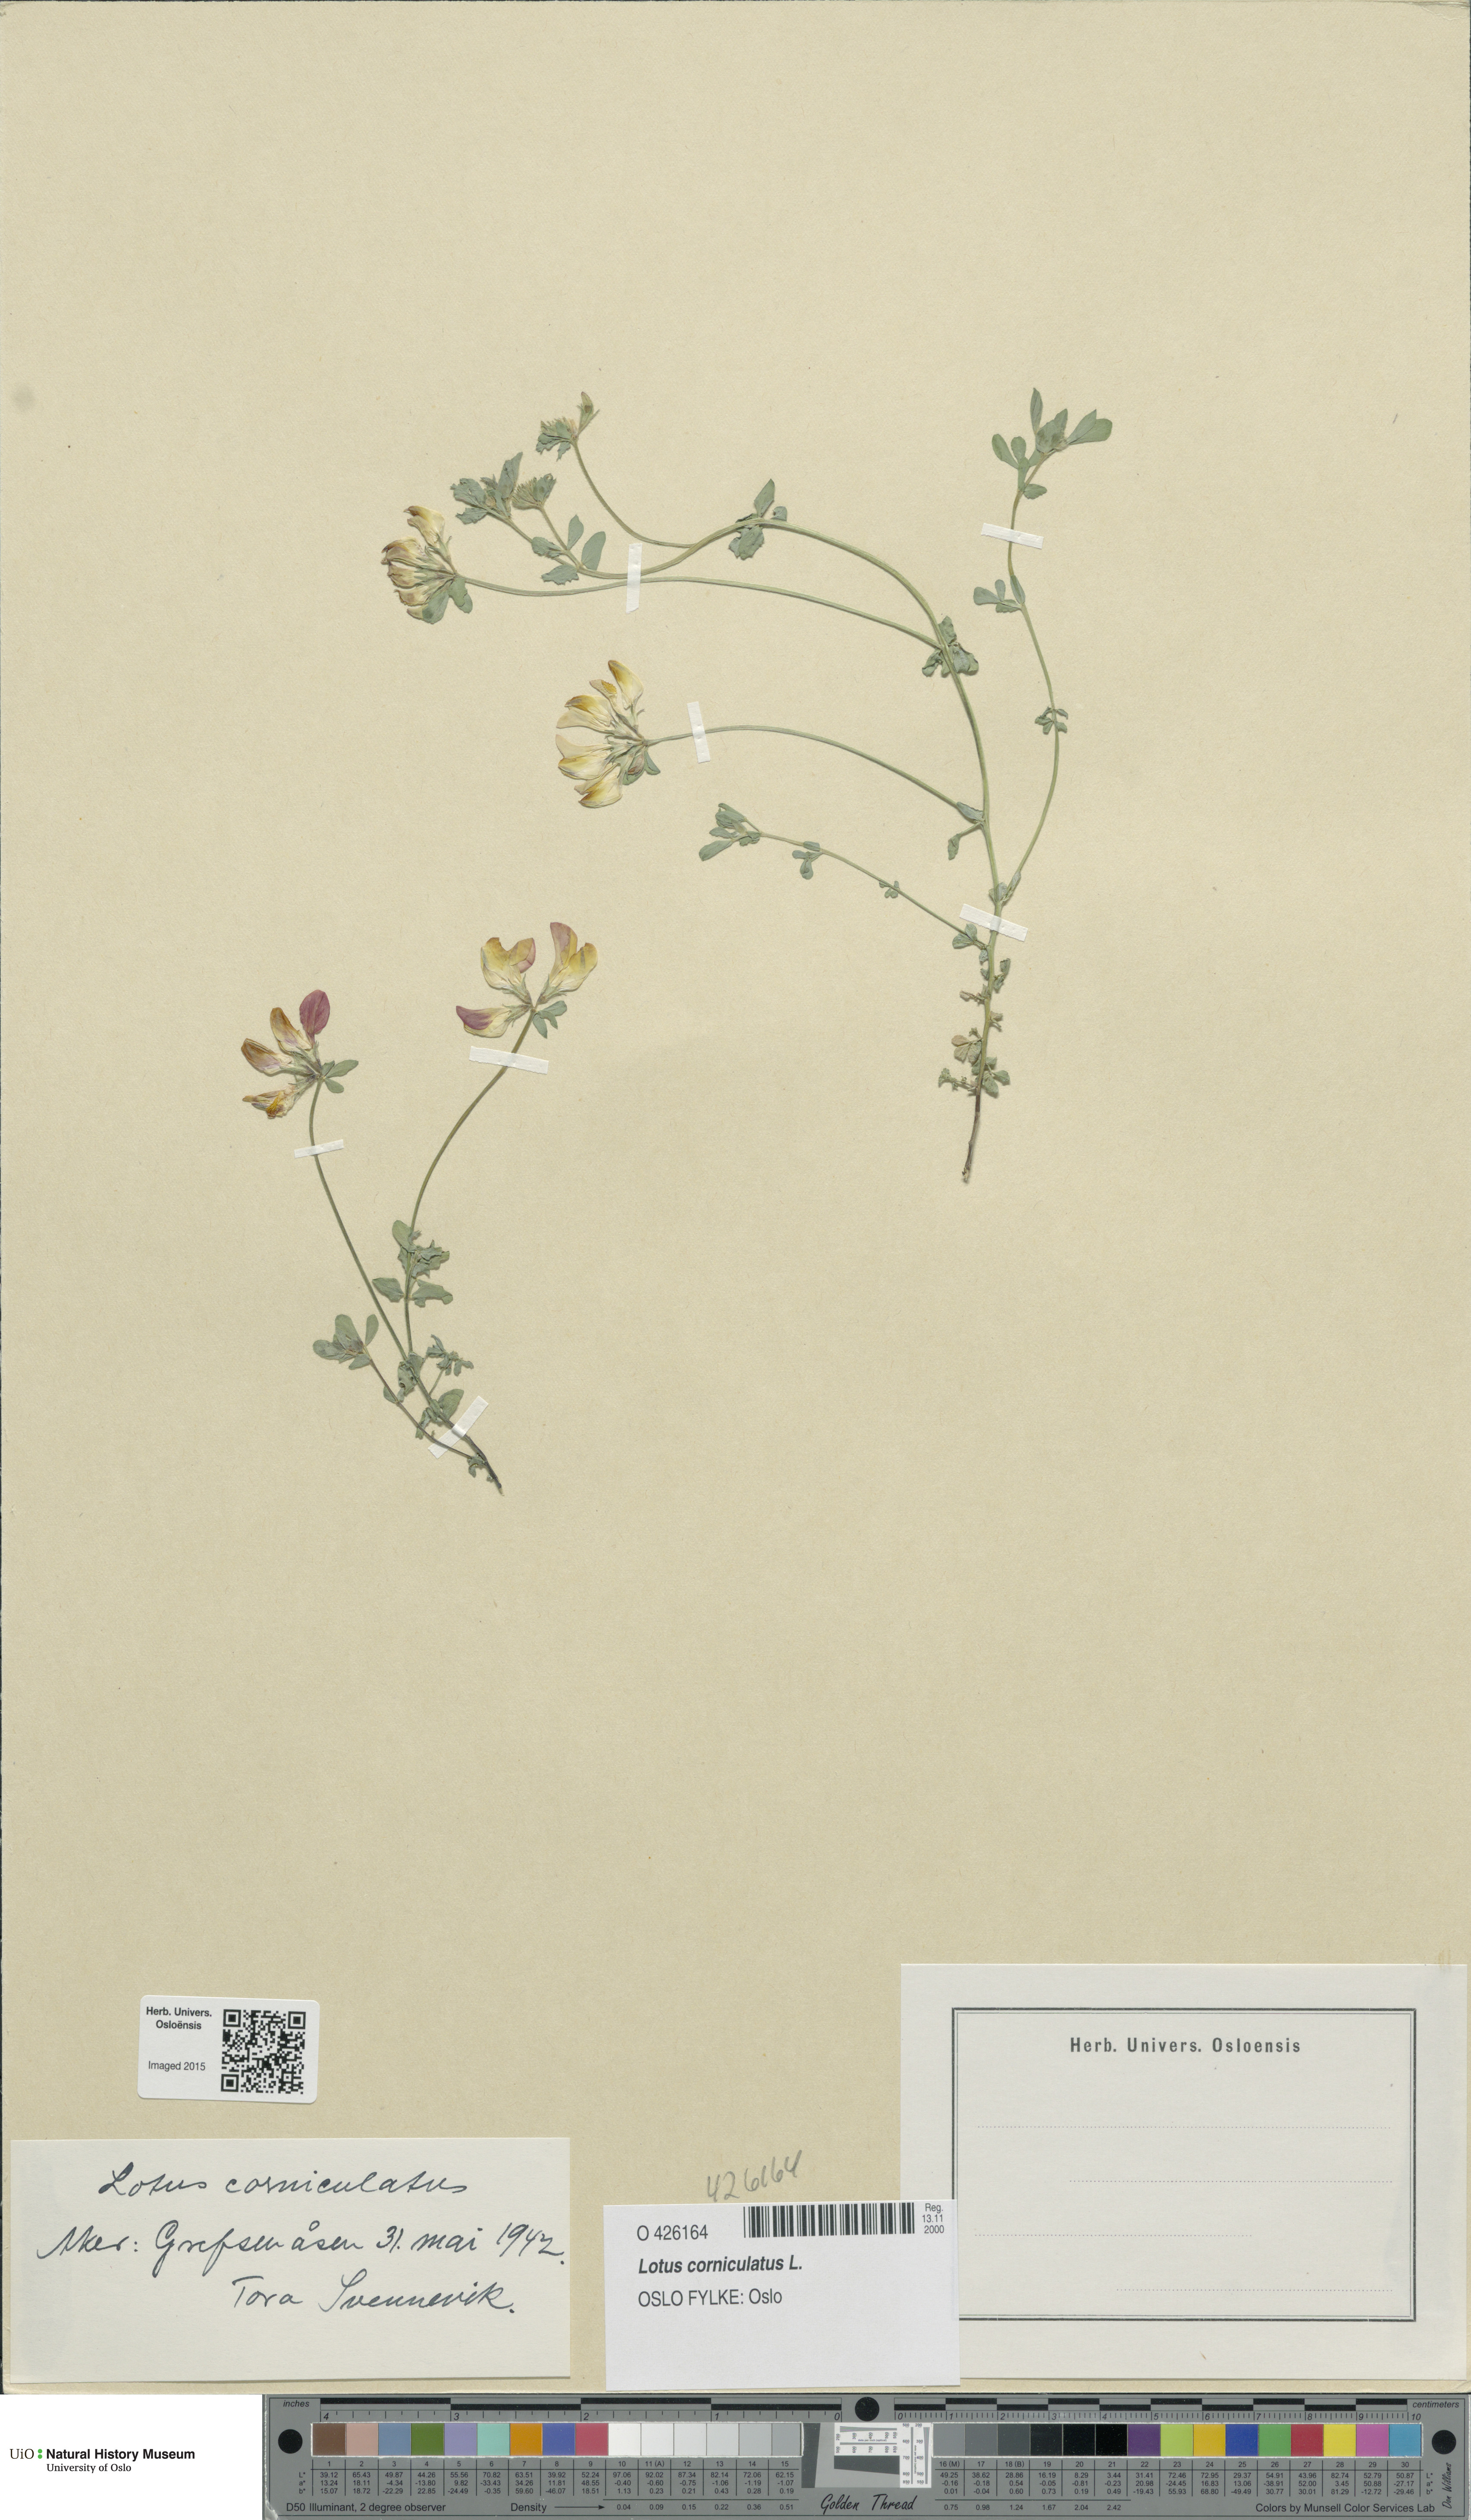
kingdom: Plantae
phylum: Tracheophyta
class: Magnoliopsida
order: Fabales
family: Fabaceae
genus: Lotus
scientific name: Lotus corniculatus
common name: Common bird's-foot-trefoil
